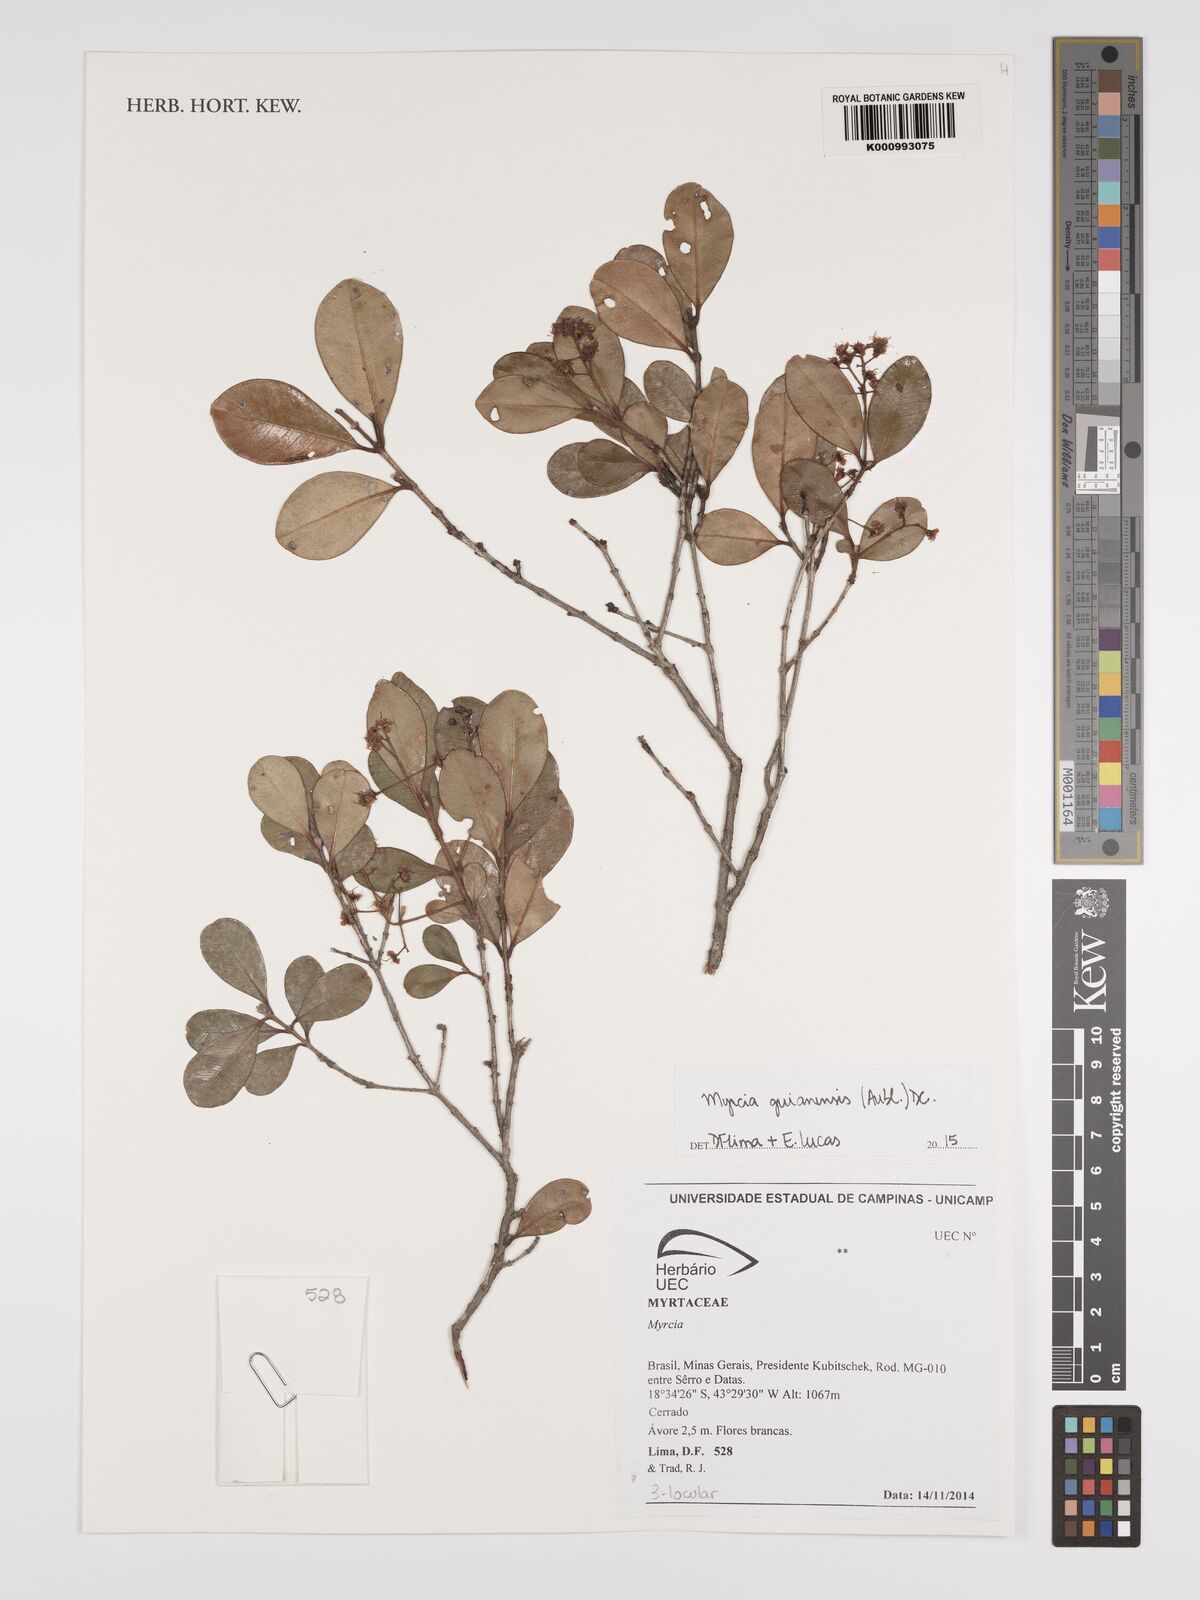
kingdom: Plantae
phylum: Tracheophyta
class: Magnoliopsida
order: Myrtales
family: Myrtaceae
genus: Myrcia
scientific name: Myrcia guianensis
